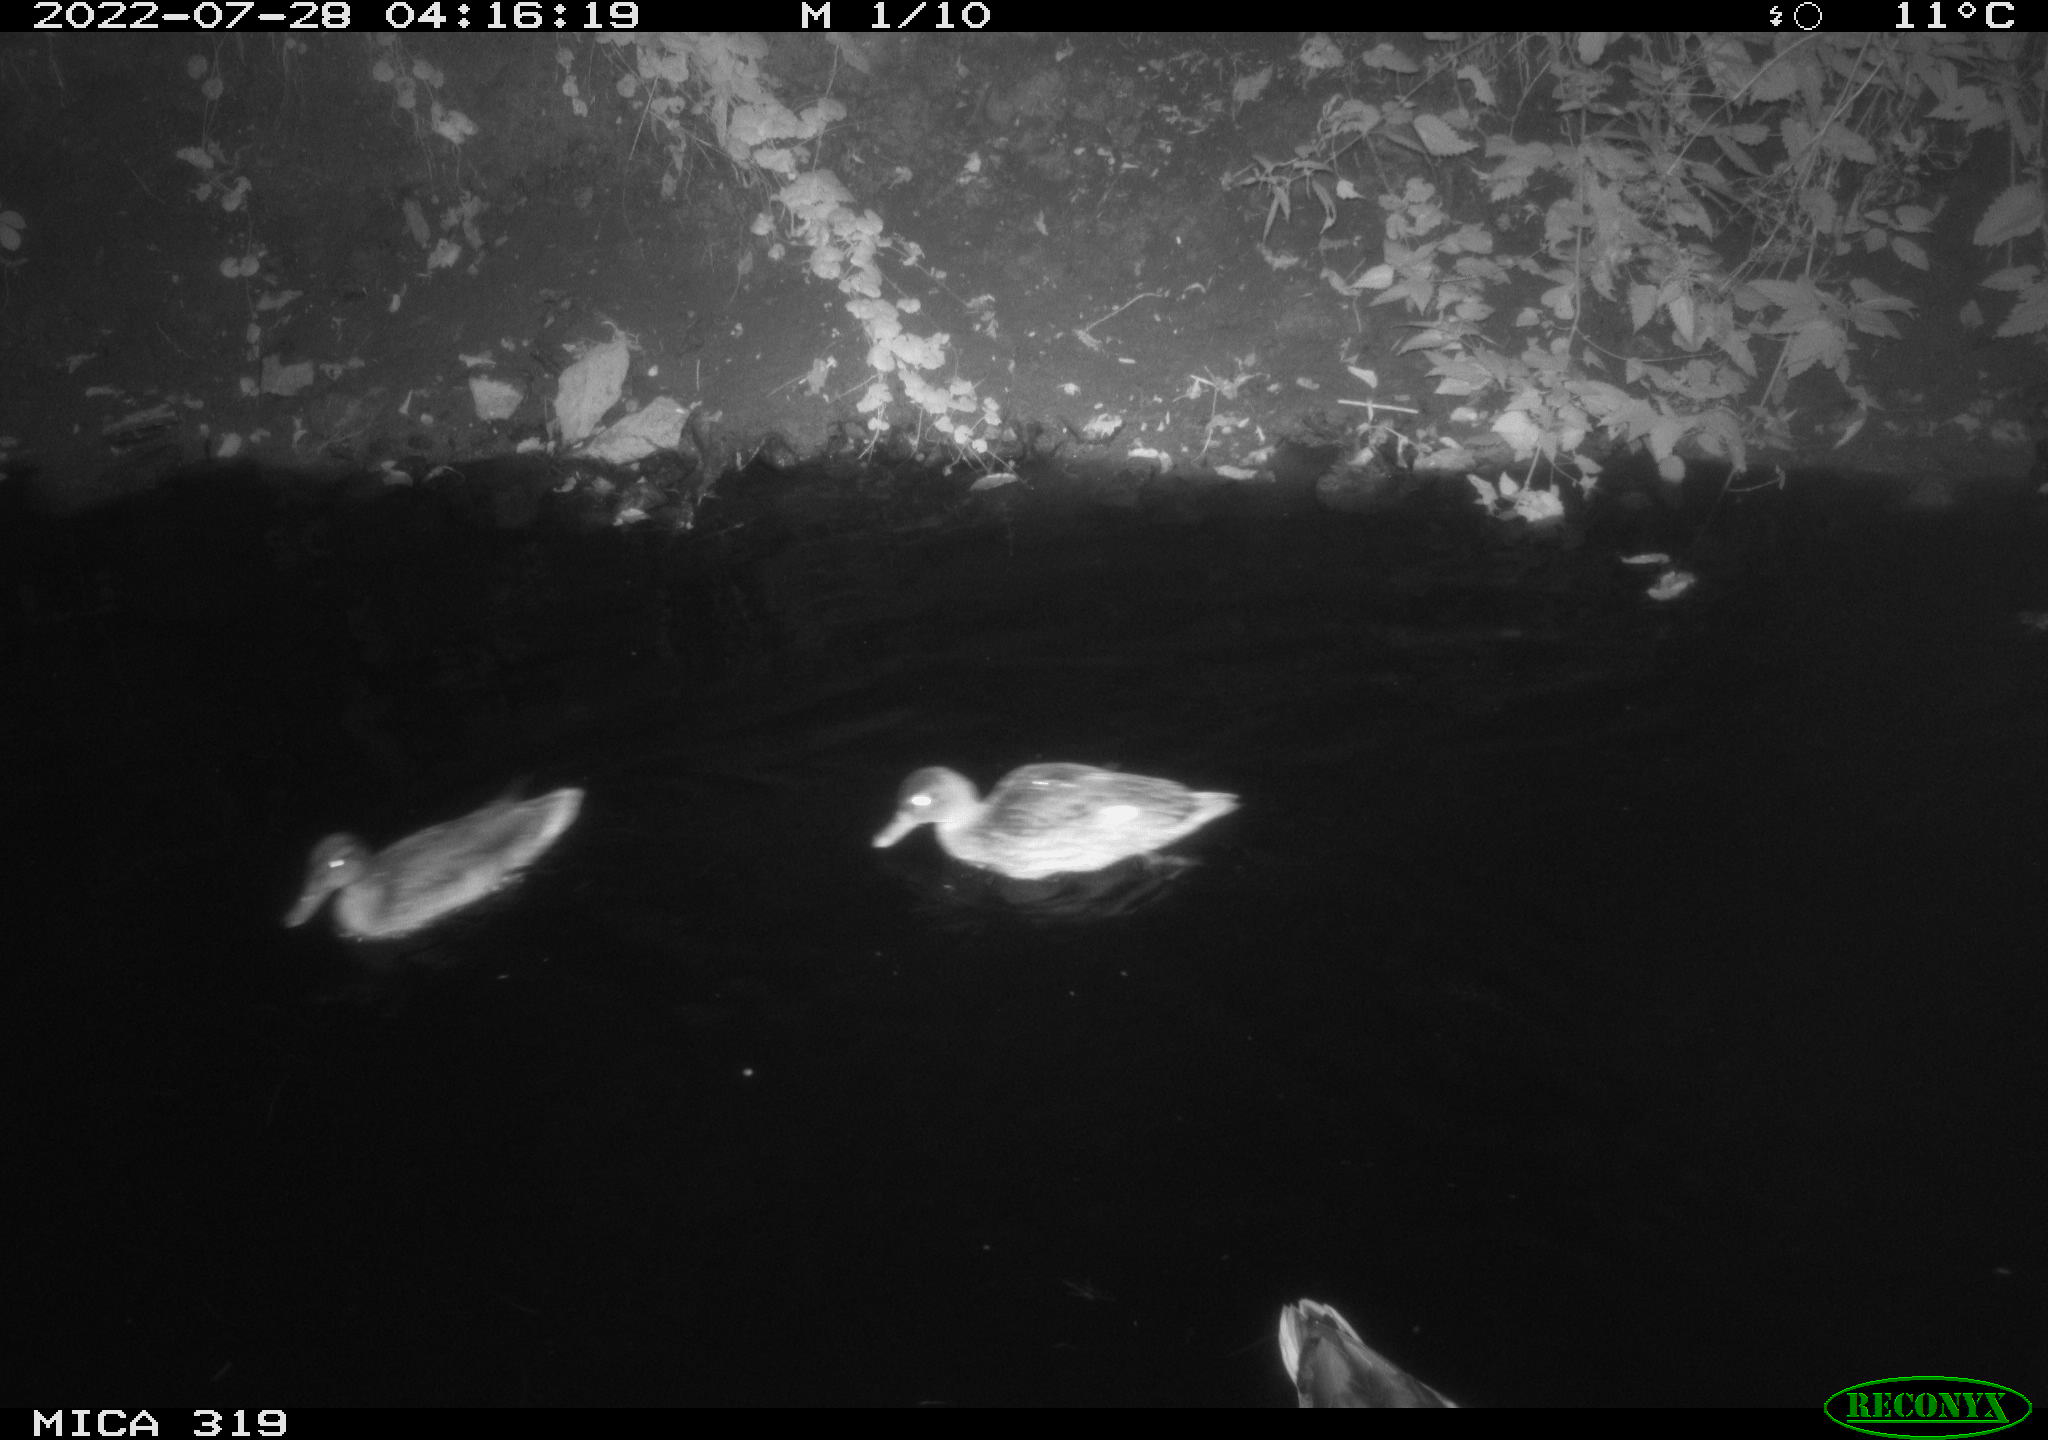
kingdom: Animalia
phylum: Chordata
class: Aves
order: Anseriformes
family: Anatidae
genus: Anas
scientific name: Anas
